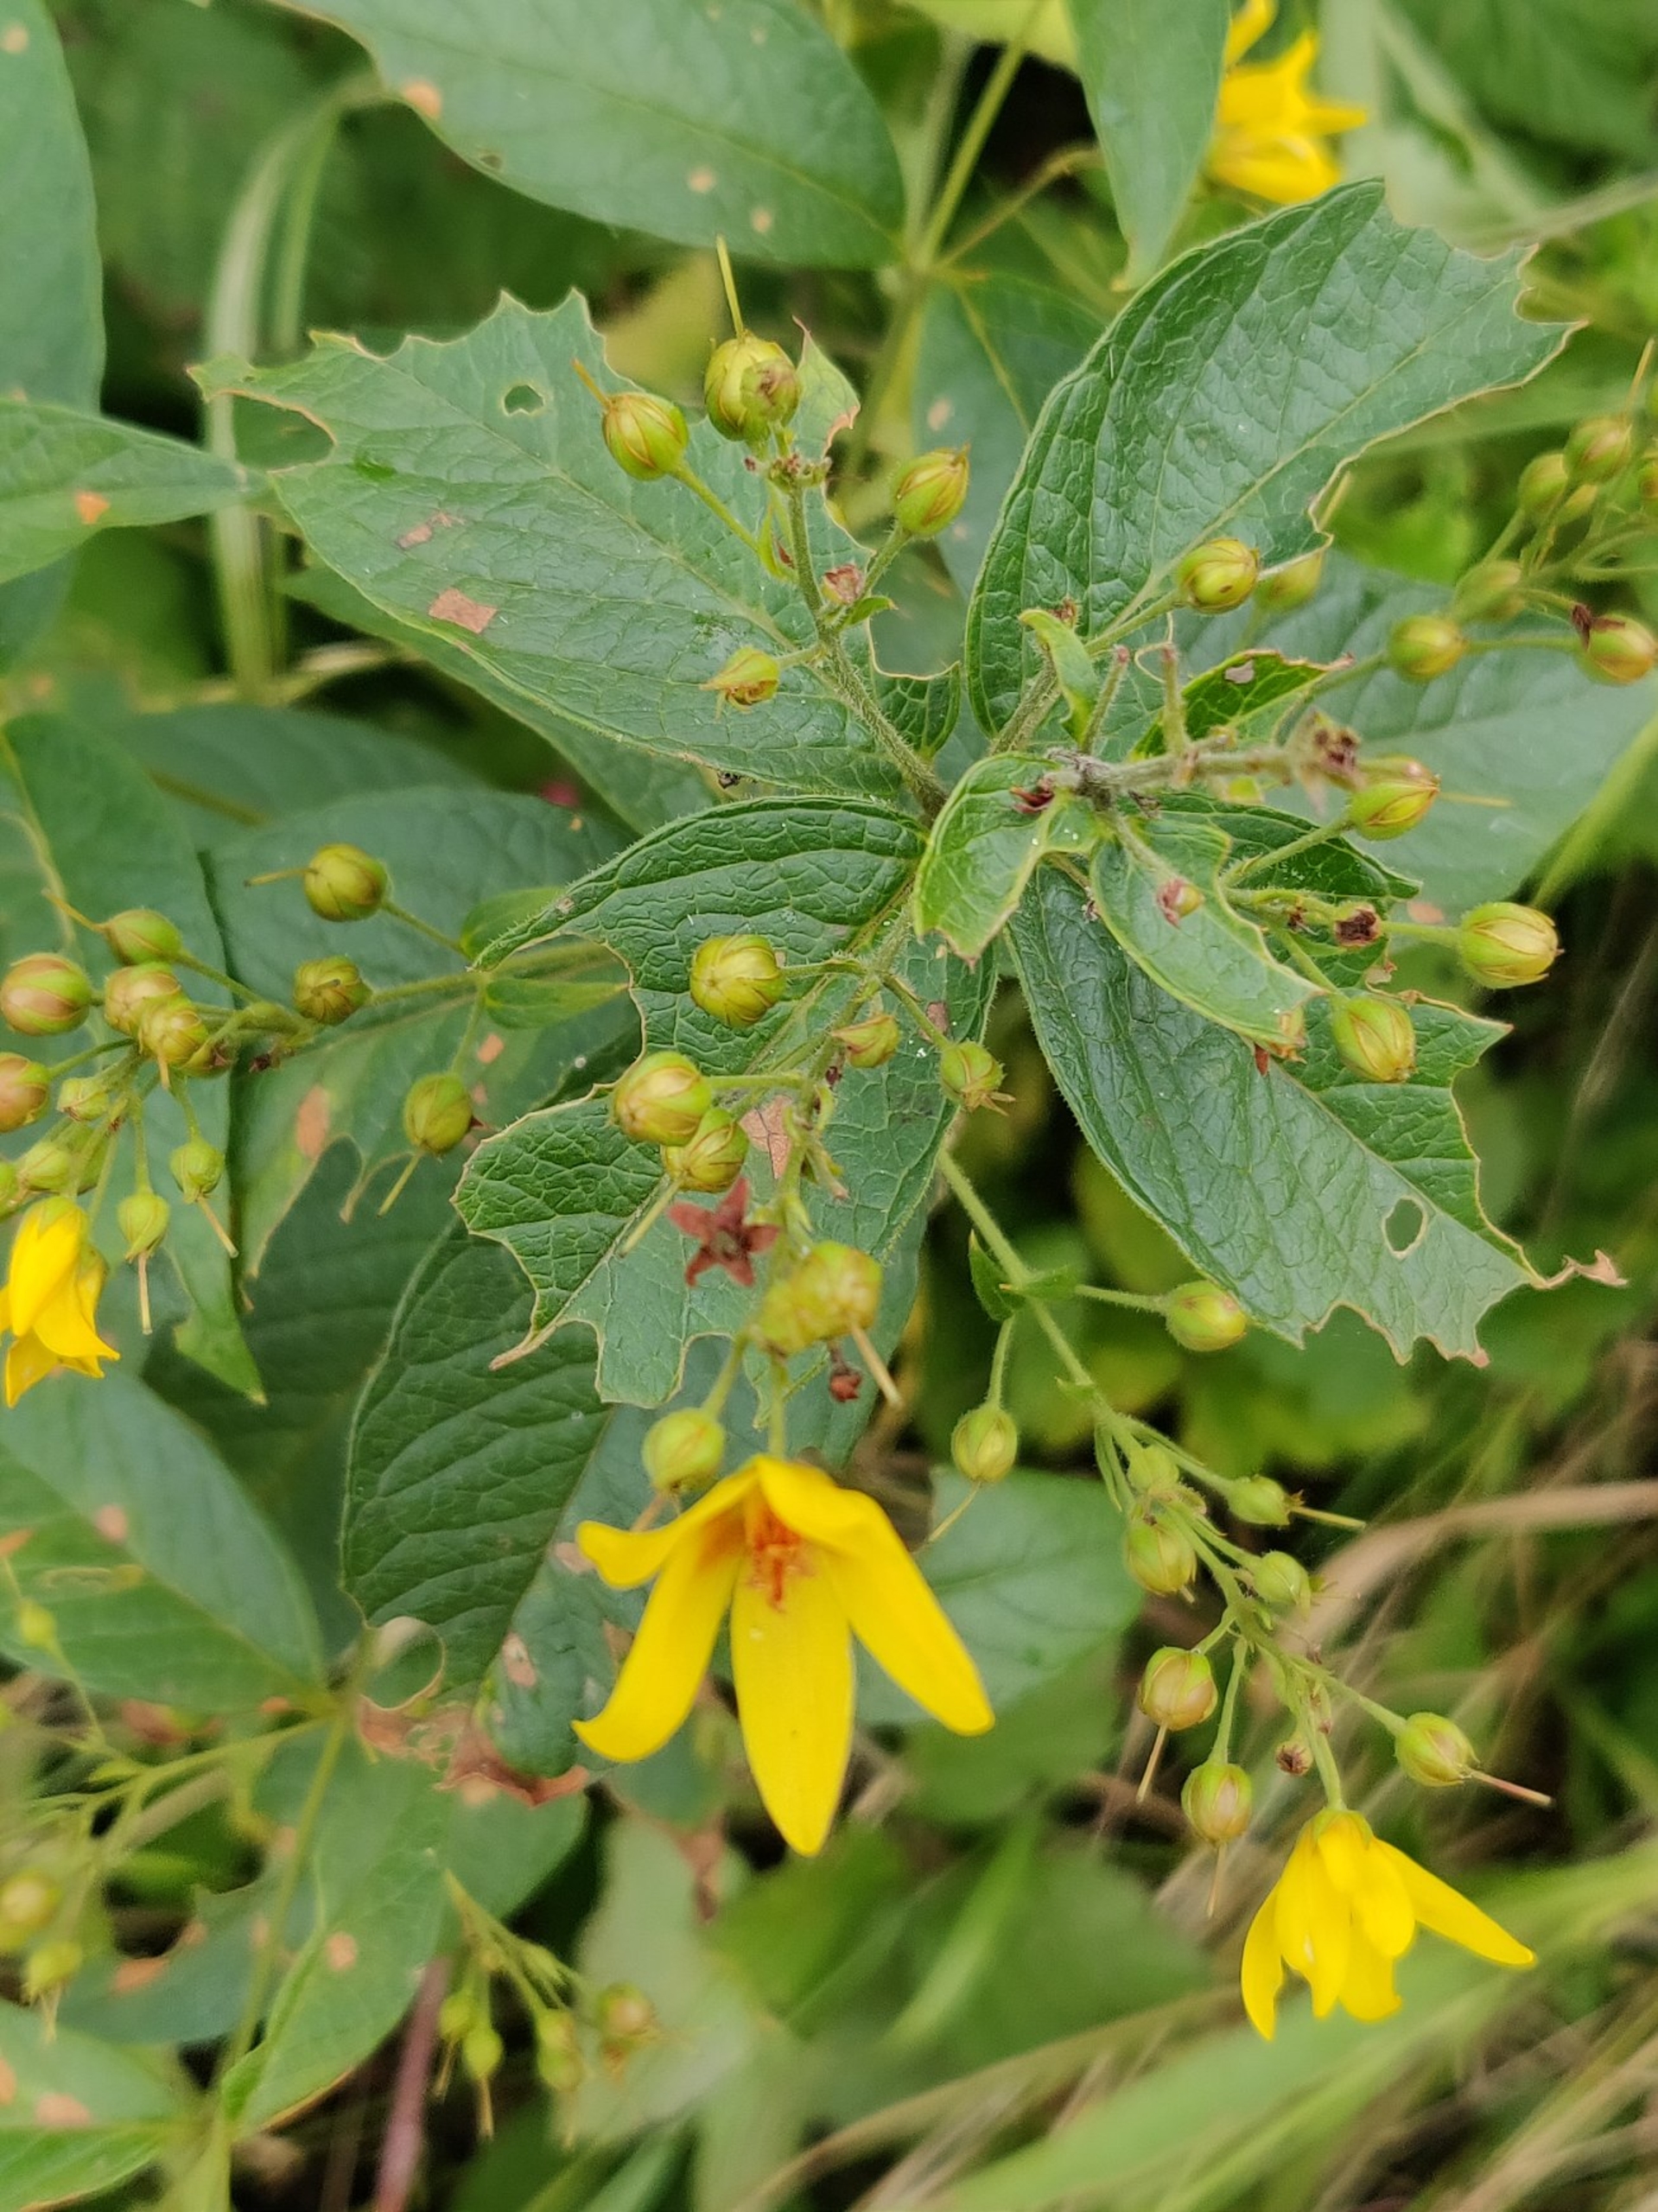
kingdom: Plantae
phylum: Tracheophyta
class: Magnoliopsida
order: Ericales
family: Primulaceae
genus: Lysimachia
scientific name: Lysimachia vulgaris
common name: Almindelig fredløs
